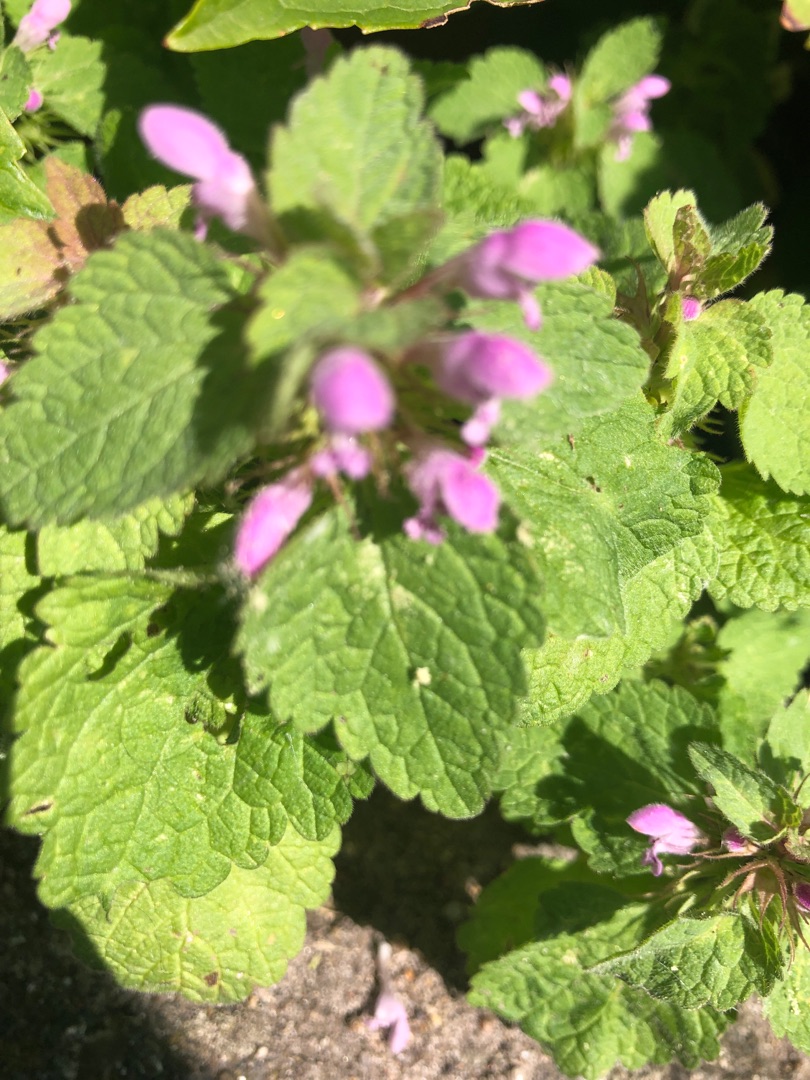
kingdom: Plantae
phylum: Tracheophyta
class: Magnoliopsida
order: Lamiales
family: Lamiaceae
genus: Lamium
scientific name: Lamium purpureum
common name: Rød tvetand
